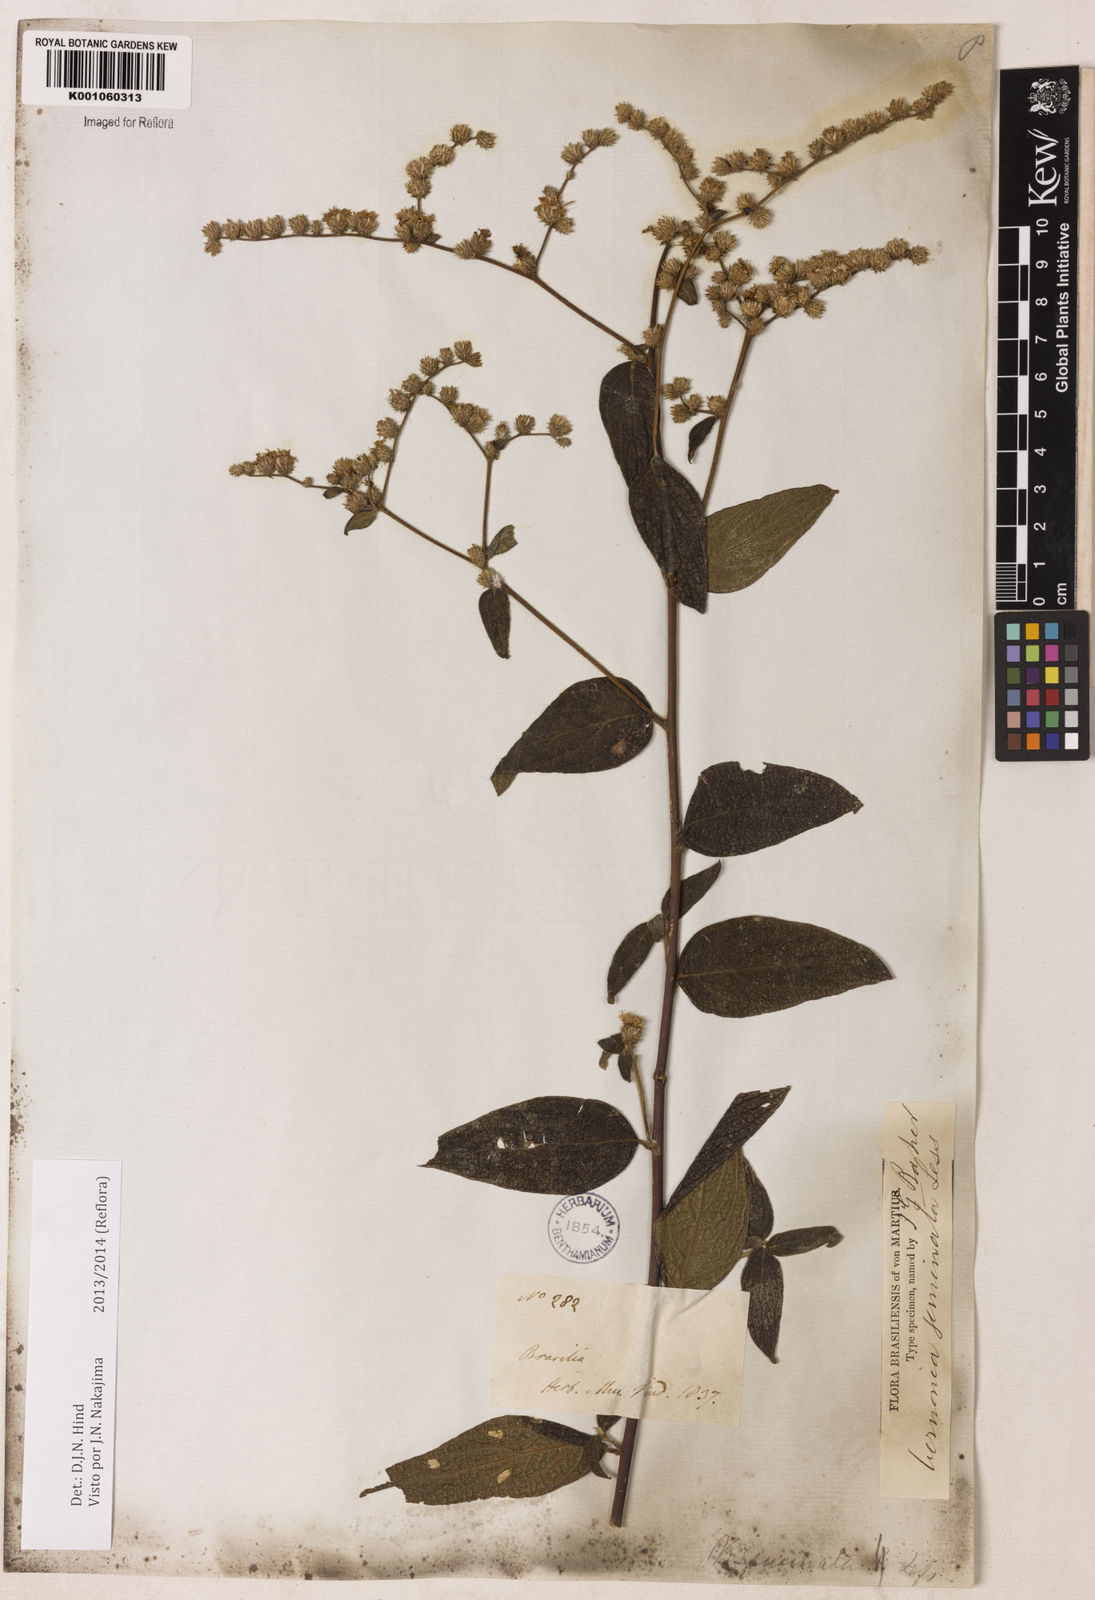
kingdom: Plantae
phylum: Tracheophyta
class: Magnoliopsida
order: Asterales
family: Asteraceae
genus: Lepidaploa
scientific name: Lepidaploa canescens
